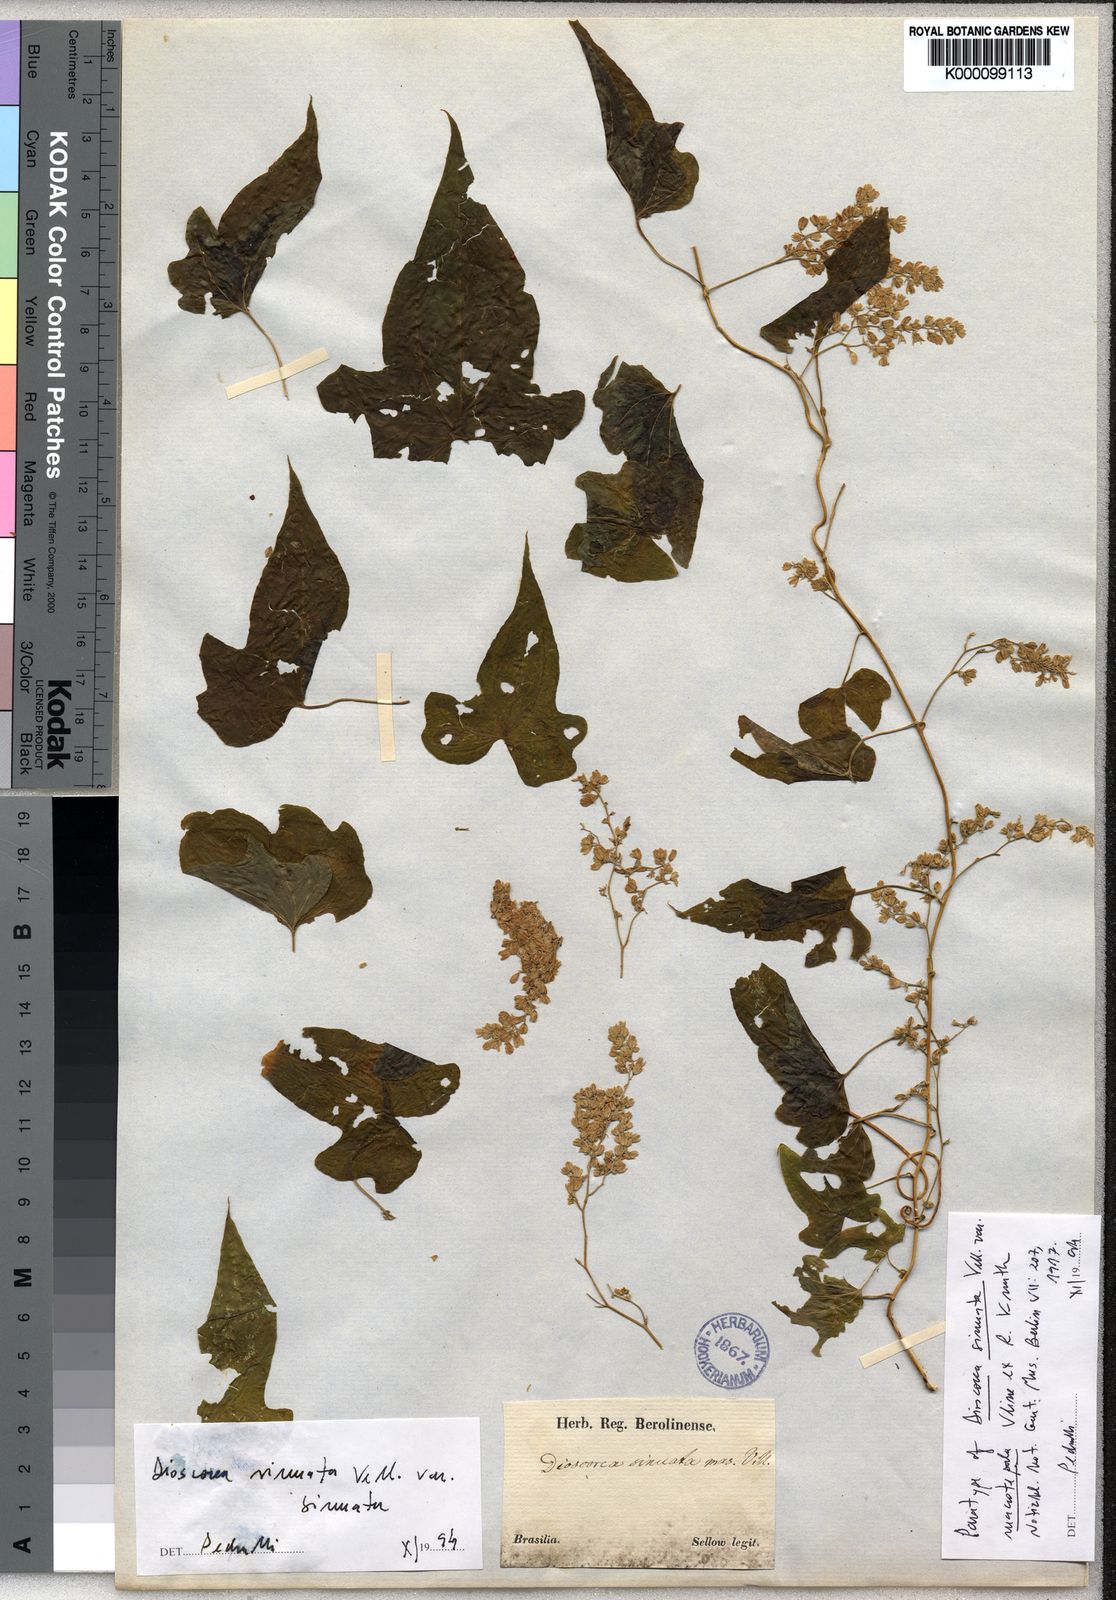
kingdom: Plantae
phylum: Tracheophyta
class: Liliopsida
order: Dioscoreales
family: Dioscoreaceae
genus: Dioscorea
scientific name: Dioscorea sinuata
